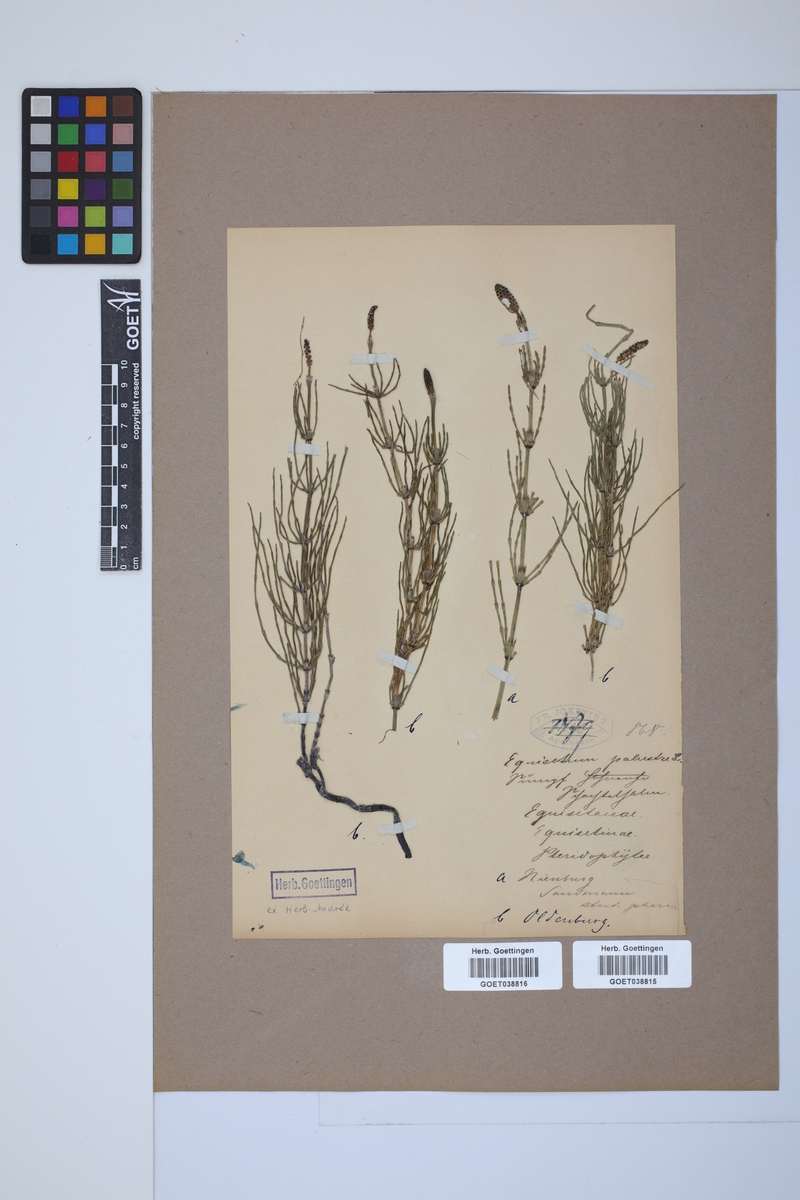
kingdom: Plantae
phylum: Tracheophyta
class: Polypodiopsida
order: Equisetales
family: Equisetaceae
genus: Equisetum
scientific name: Equisetum palustre
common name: Marsh horsetail
